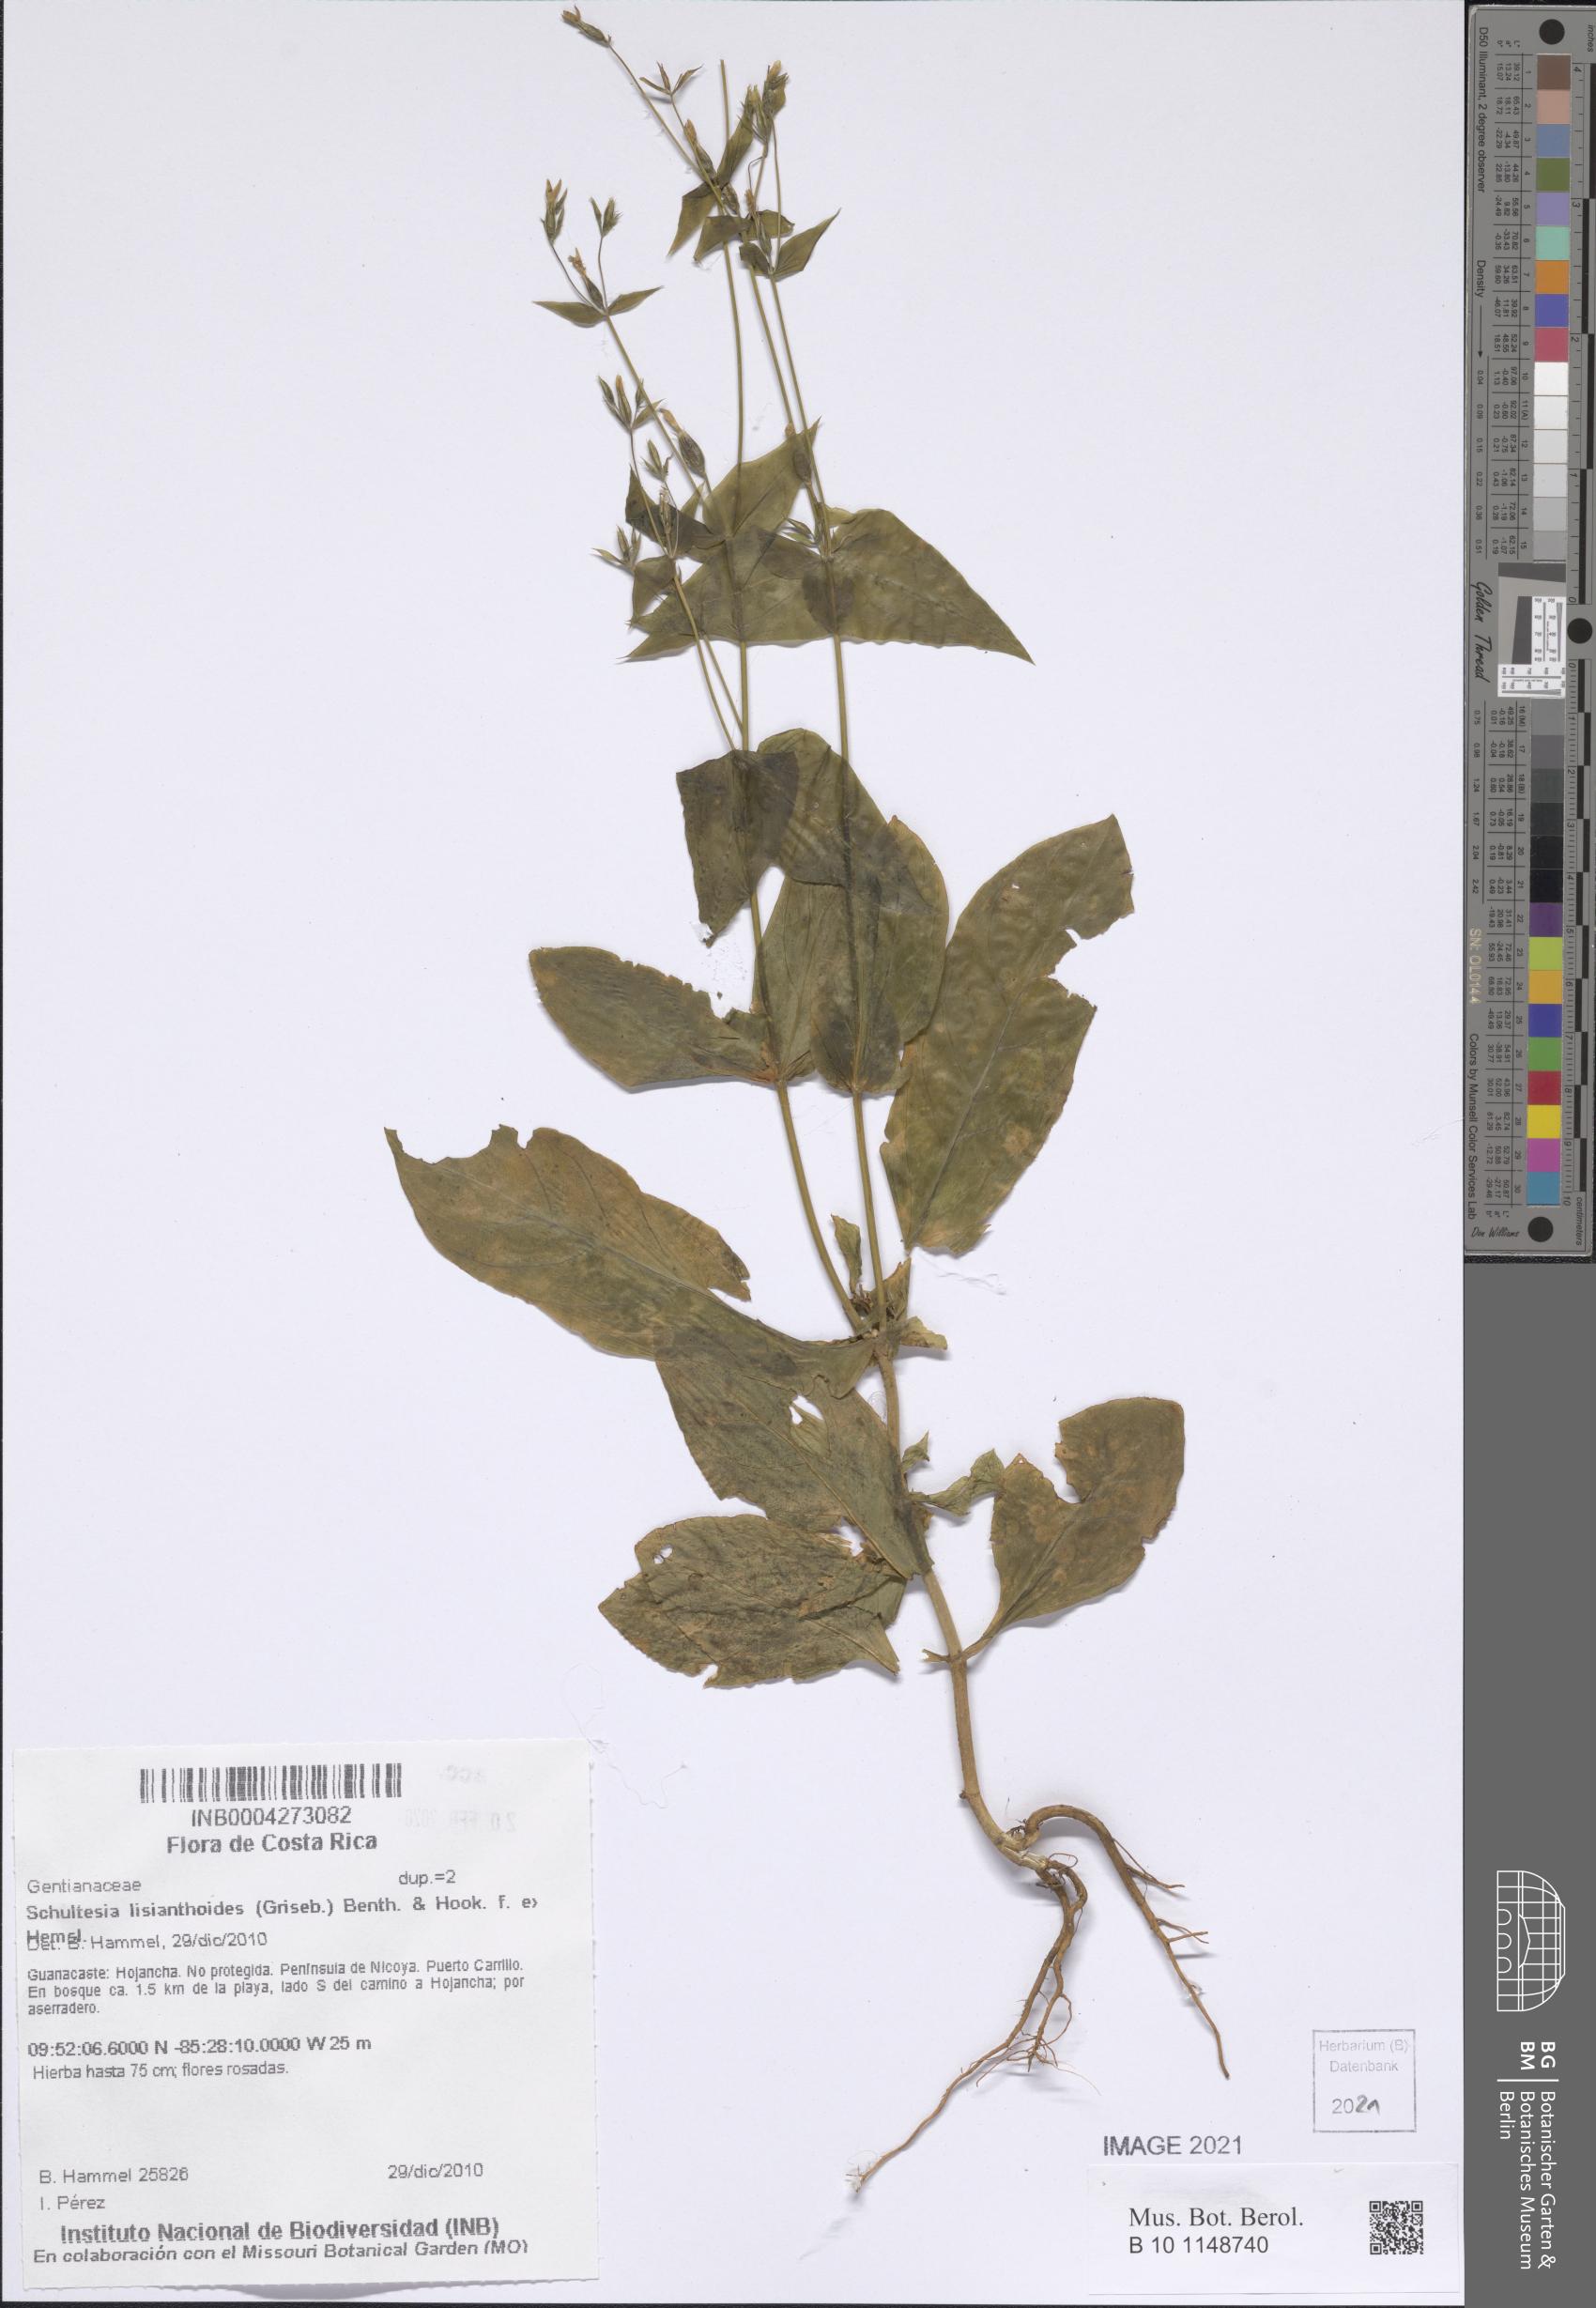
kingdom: Plantae
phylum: Tracheophyta
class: Magnoliopsida
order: Gentianales
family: Gentianaceae
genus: Schultesia
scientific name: Schultesia lisianthoides
